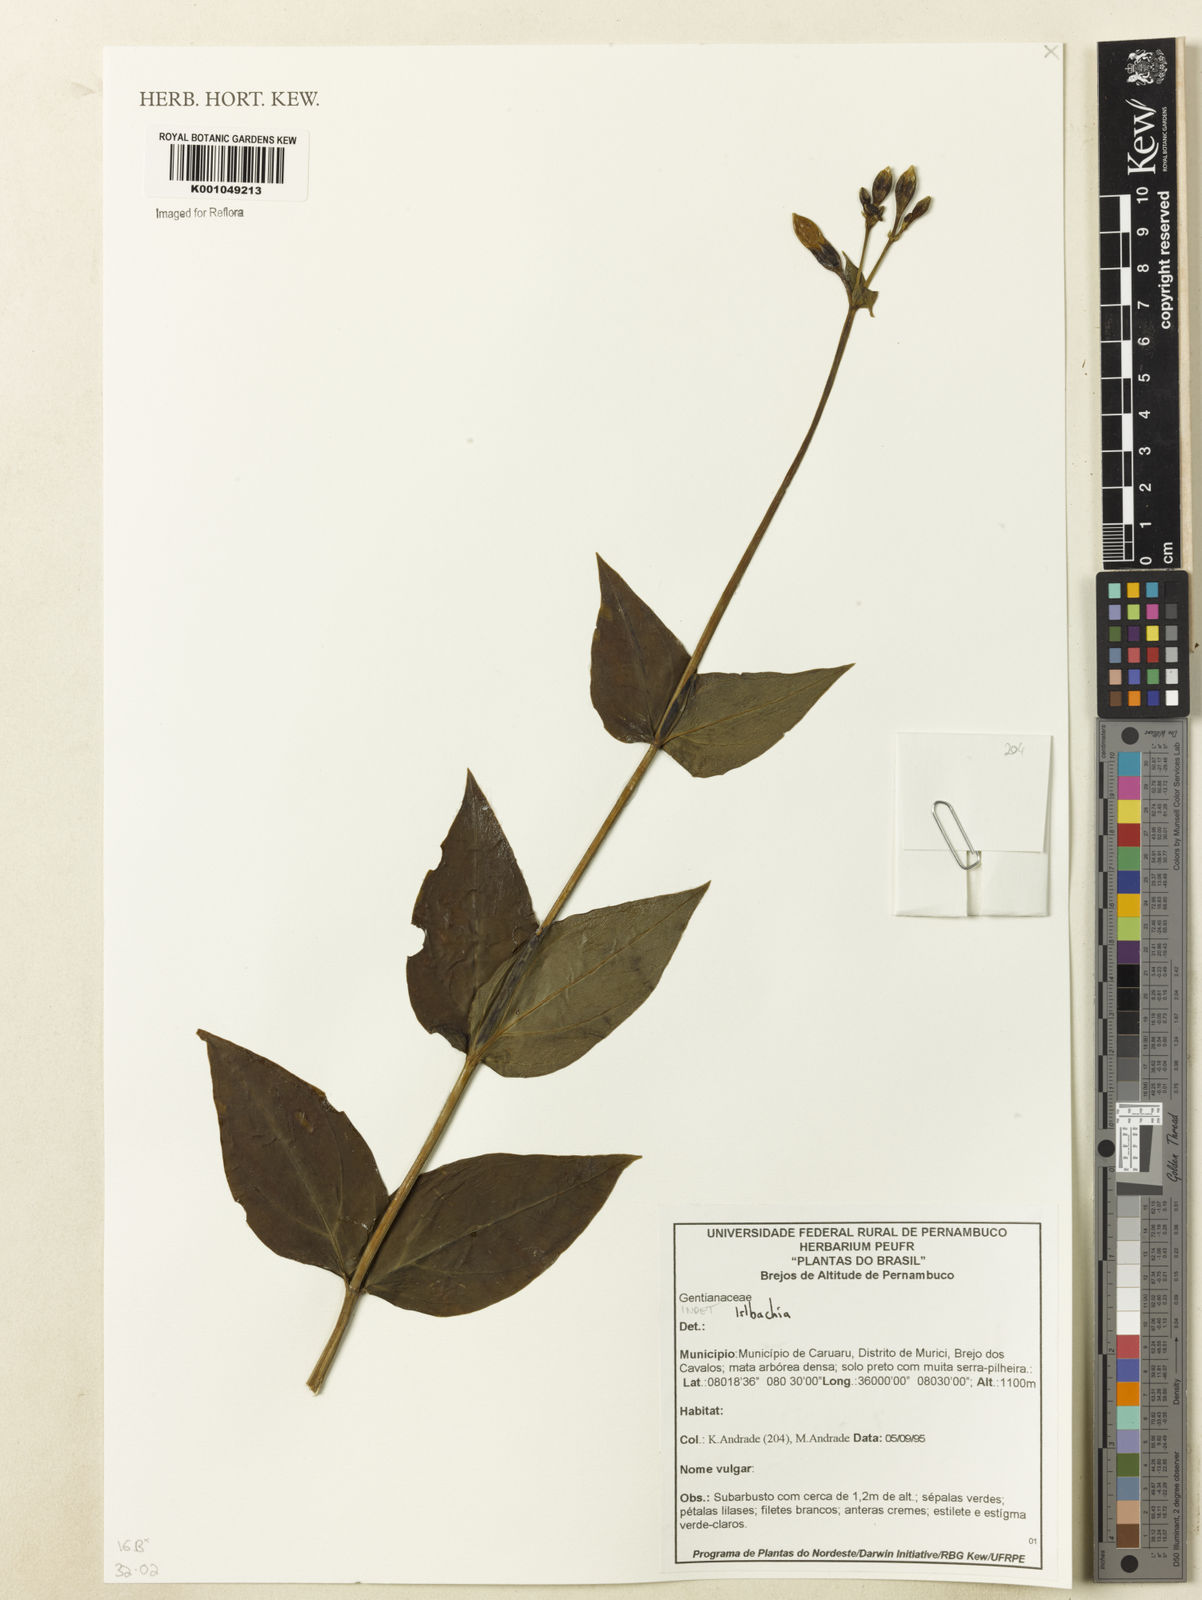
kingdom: Plantae
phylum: Tracheophyta
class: Magnoliopsida
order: Gentianales
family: Gentianaceae
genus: Irlbachia
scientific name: Irlbachia
